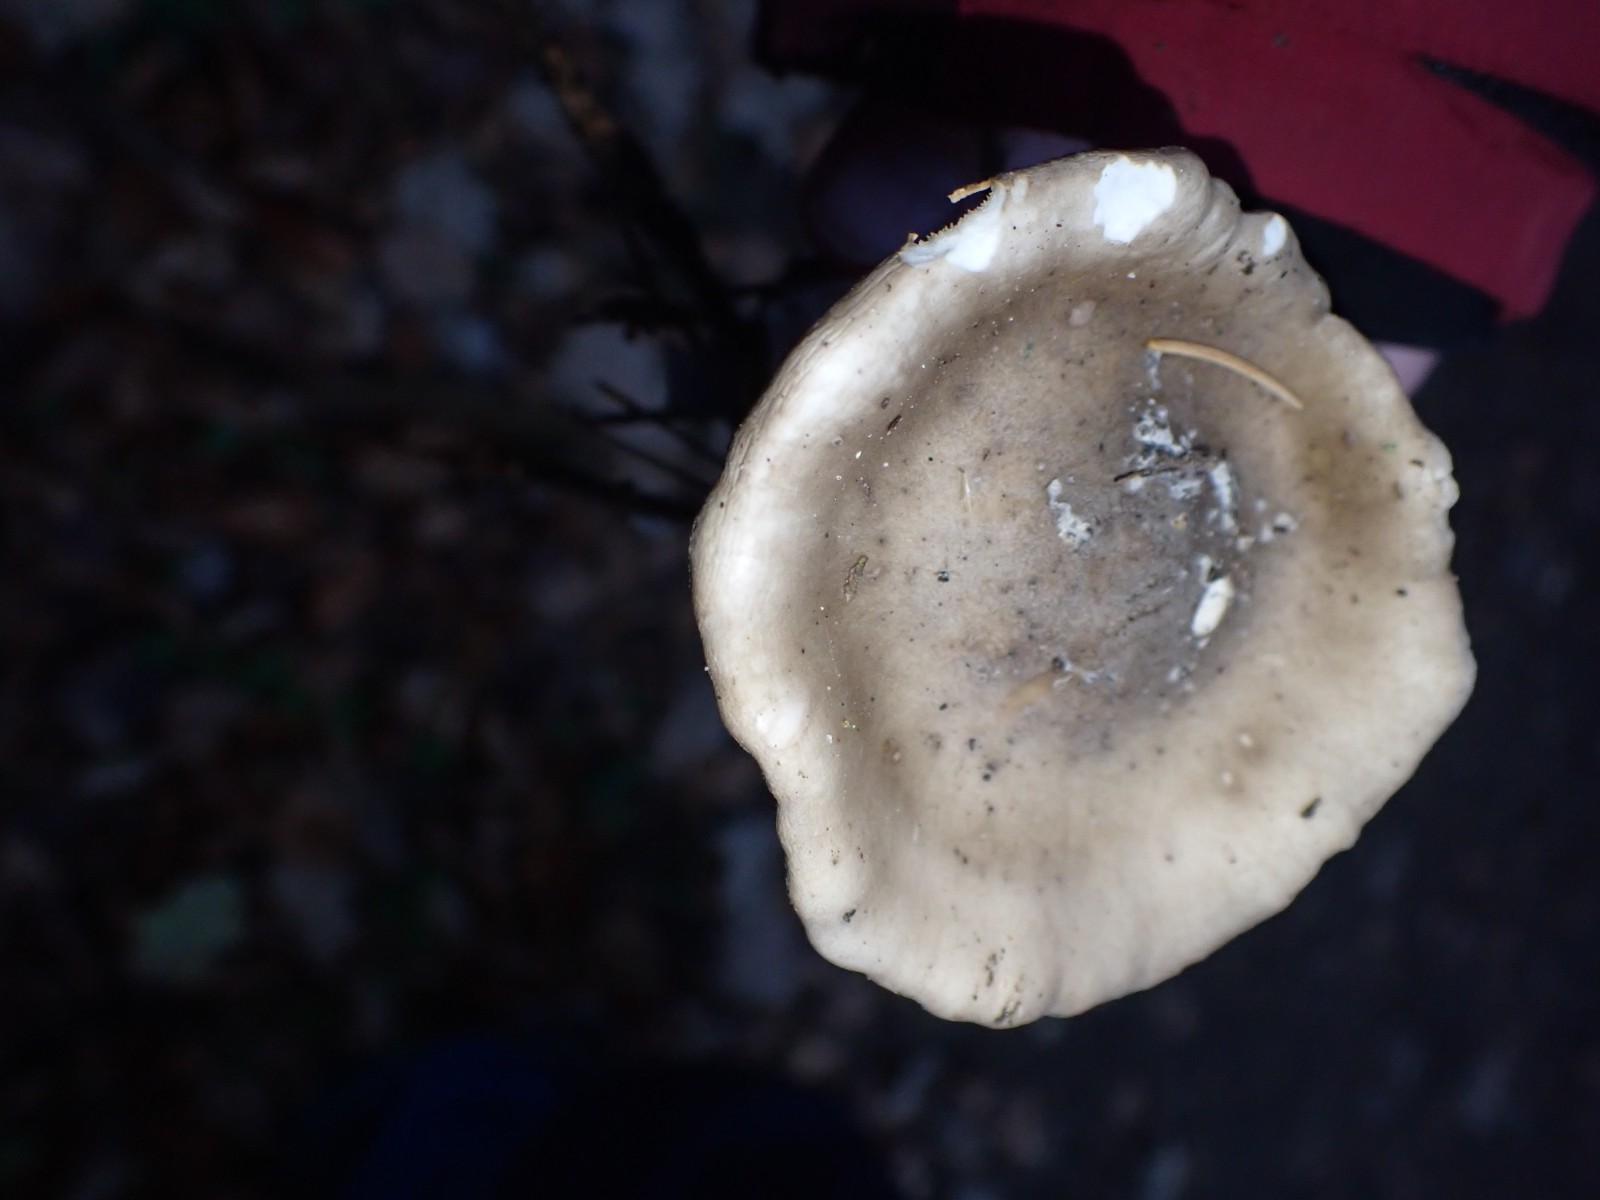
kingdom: Fungi
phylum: Basidiomycota
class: Agaricomycetes
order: Agaricales
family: Tricholomataceae
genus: Clitocybe
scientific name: Clitocybe nebularis
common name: tåge-tragthat
